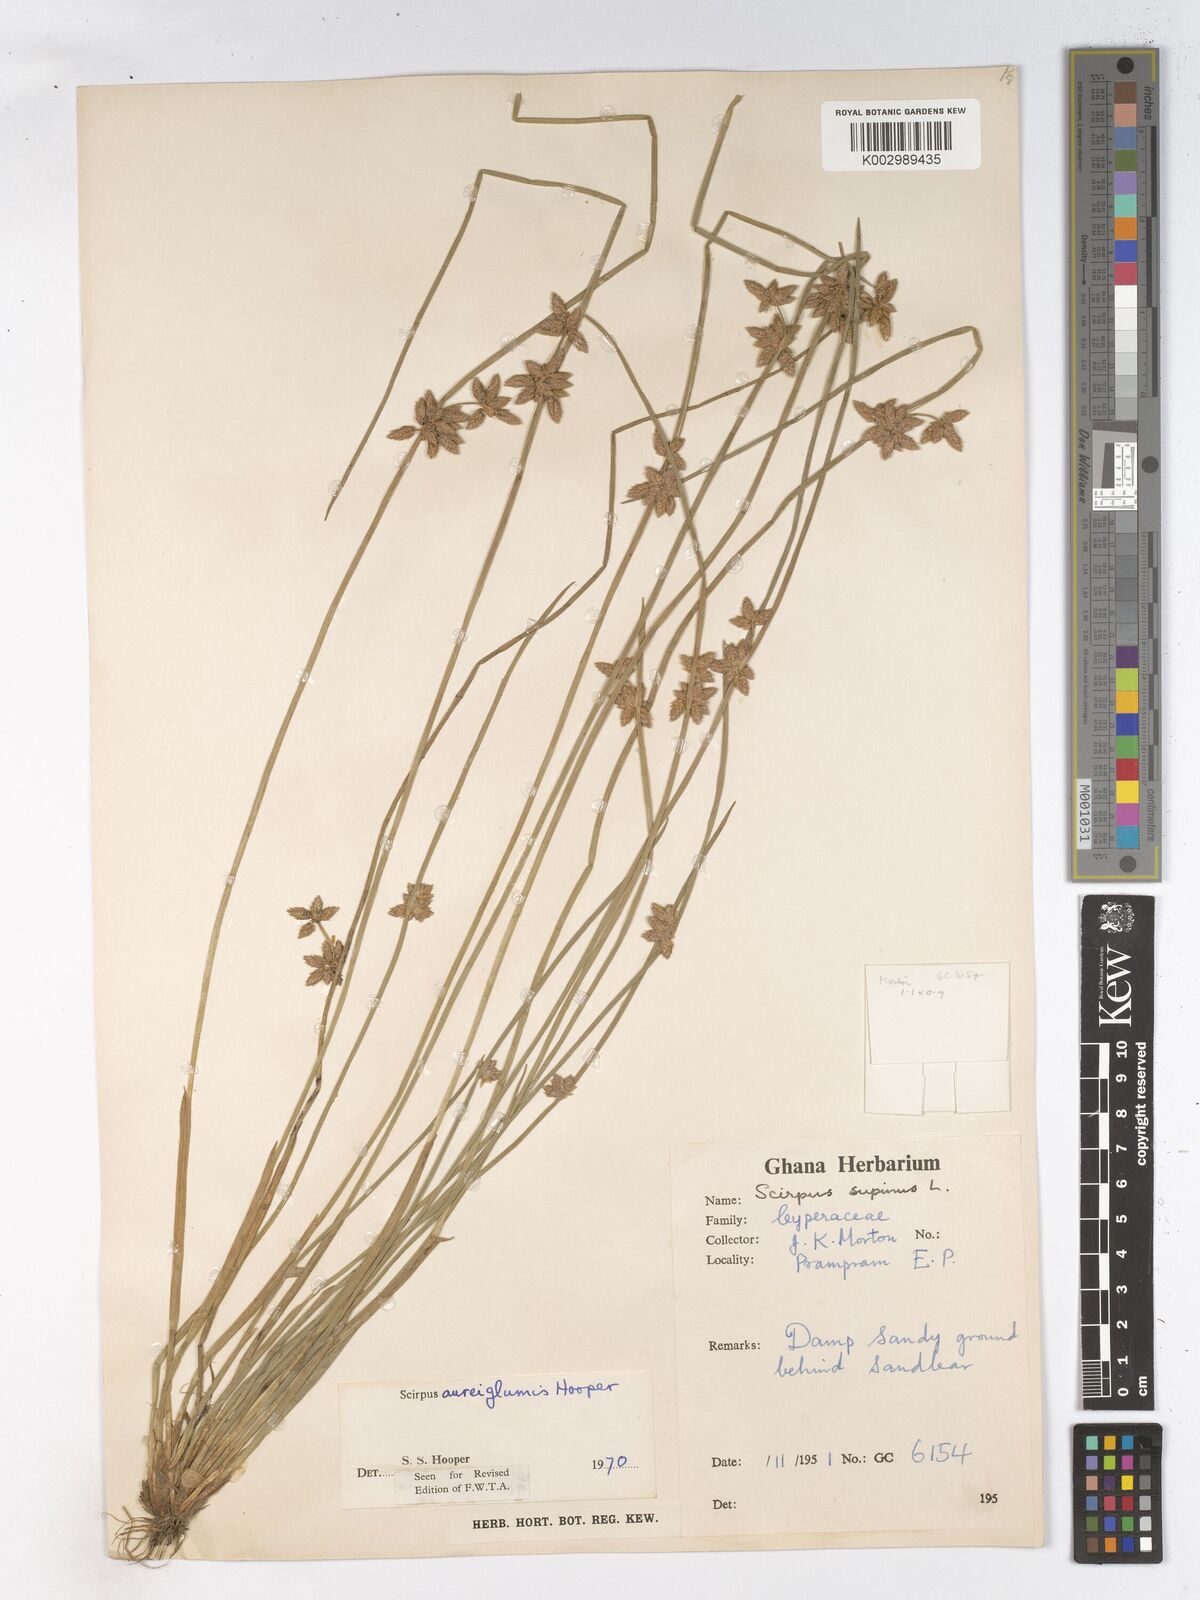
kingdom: Plantae
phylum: Tracheophyta
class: Liliopsida
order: Poales
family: Cyperaceae
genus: Schoenoplectiella
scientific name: Schoenoplectiella juncea
